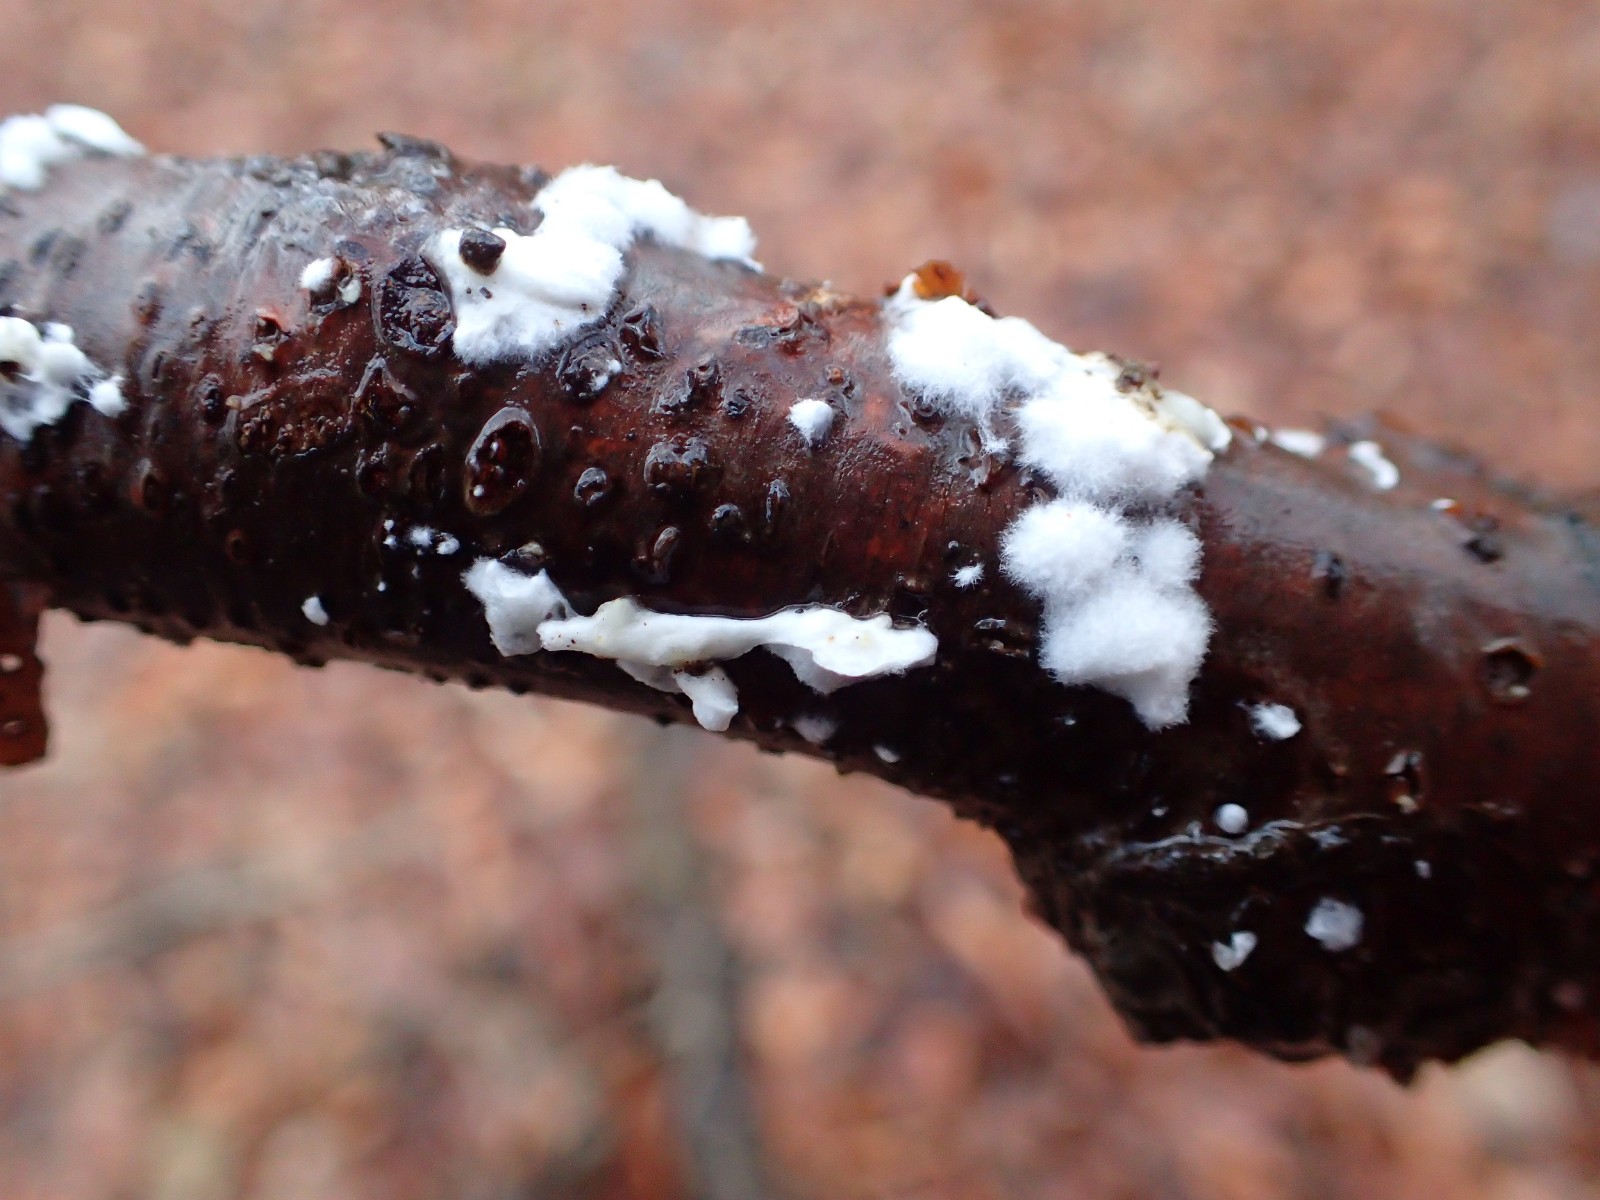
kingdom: Fungi
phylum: Basidiomycota
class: Agaricomycetes
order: Polyporales
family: Irpicaceae
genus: Byssomerulius
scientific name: Byssomerulius corium
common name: læder-åresvamp
